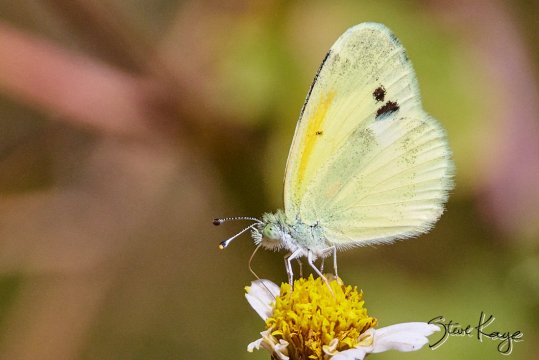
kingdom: Animalia
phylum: Arthropoda
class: Insecta
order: Lepidoptera
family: Pieridae
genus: Nathalis
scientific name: Nathalis iole
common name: Dainty Sulphur
